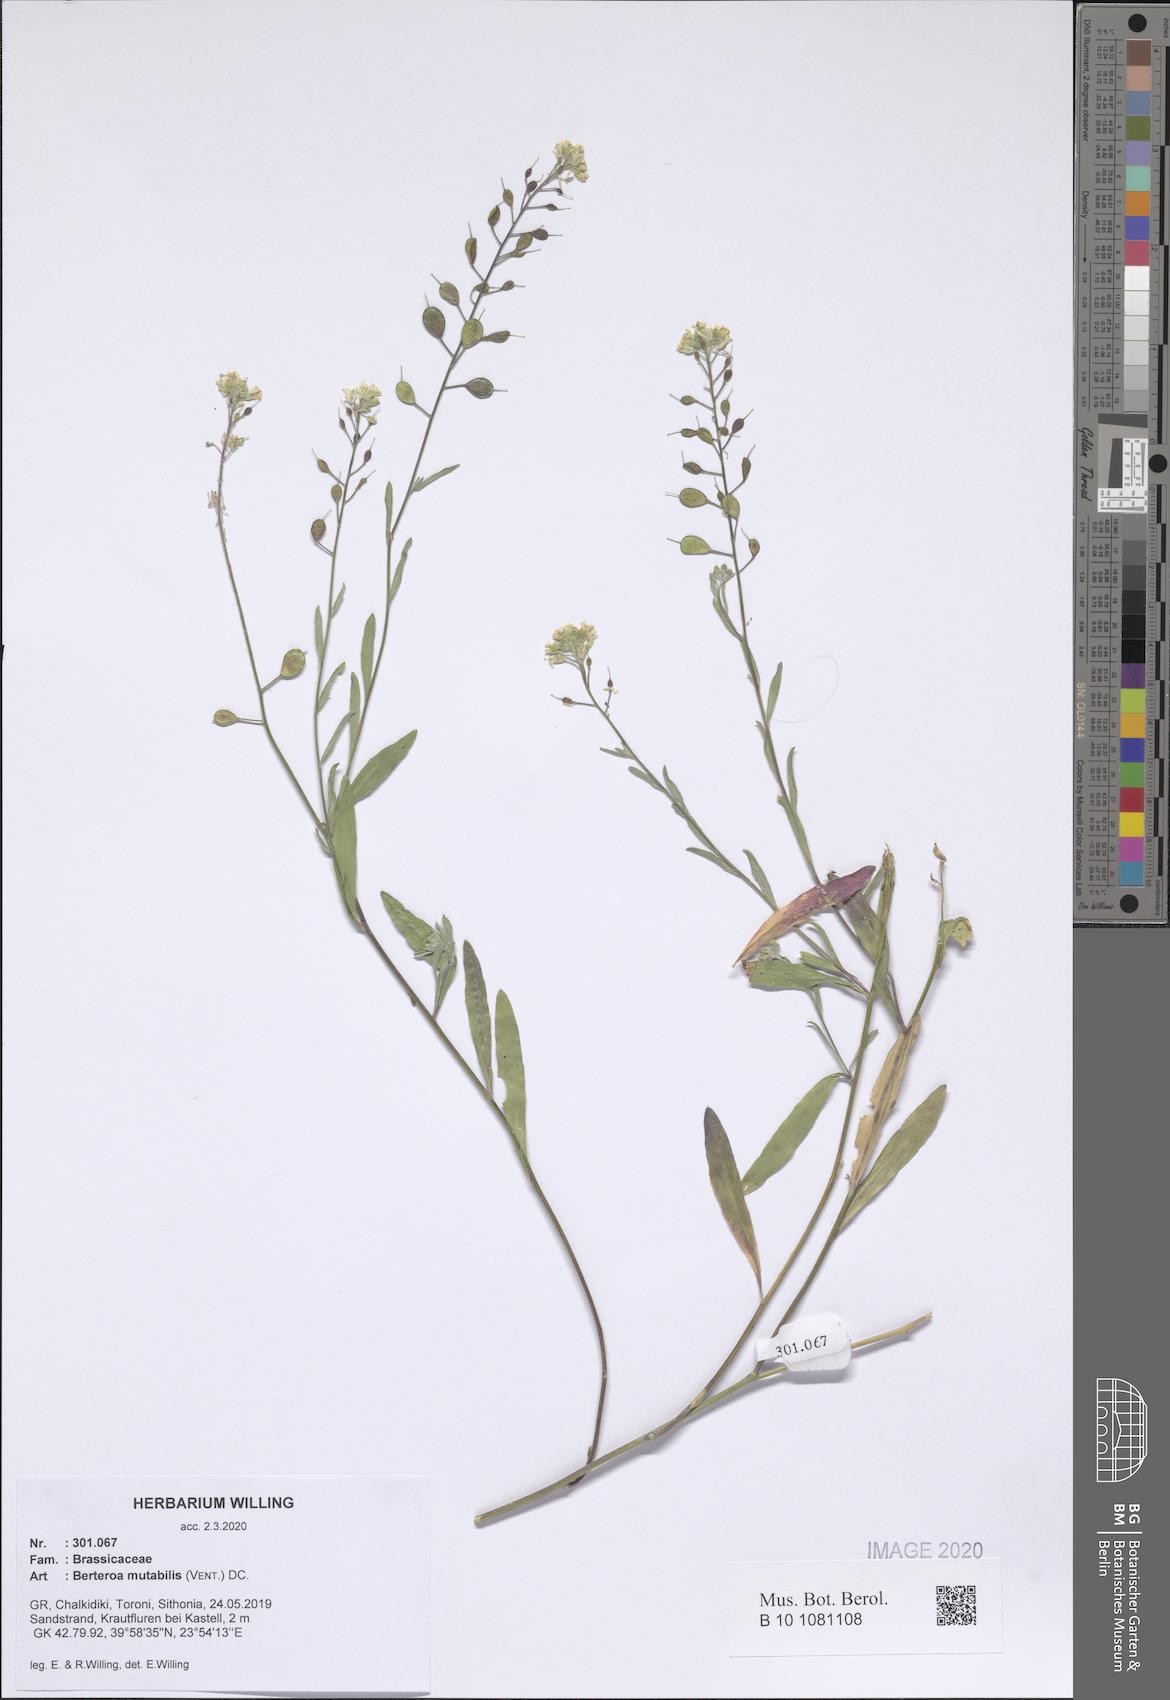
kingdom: Plantae
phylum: Tracheophyta
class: Magnoliopsida
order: Brassicales
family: Brassicaceae
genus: Berteroa
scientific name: Berteroa mutabilis
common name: Roadside false madwort
